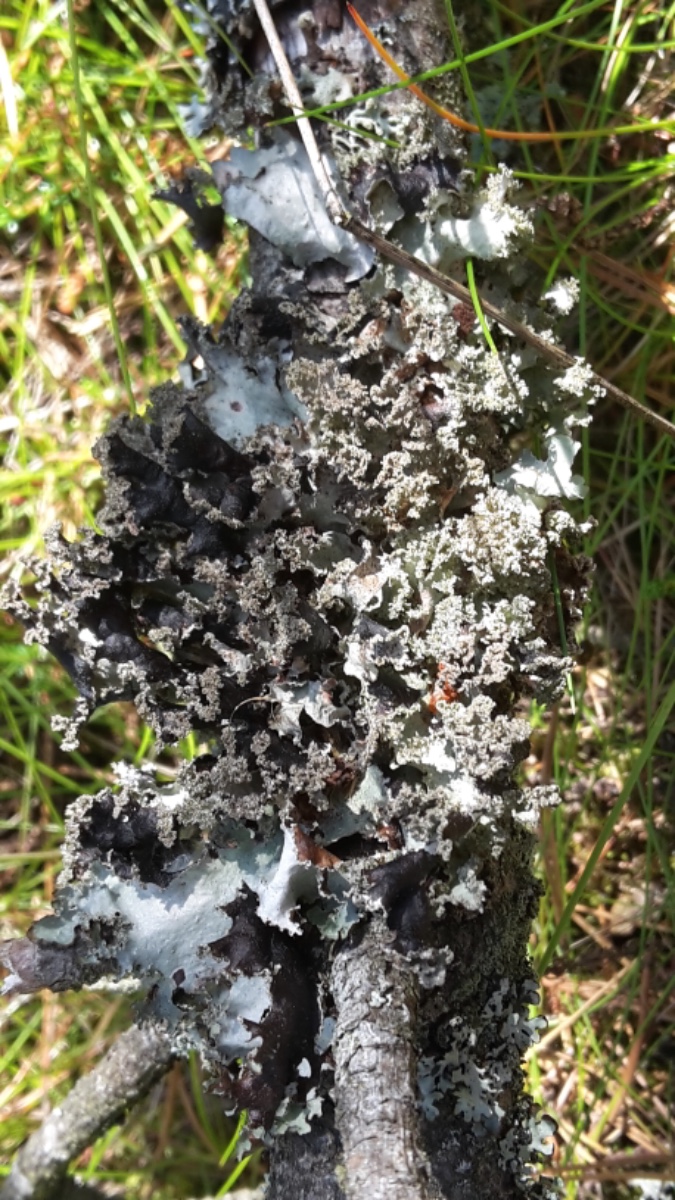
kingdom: Fungi
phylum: Ascomycota
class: Lecanoromycetes
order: Lecanorales
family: Parmeliaceae
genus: Platismatia
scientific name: Platismatia glauca
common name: blågrå papirlav
